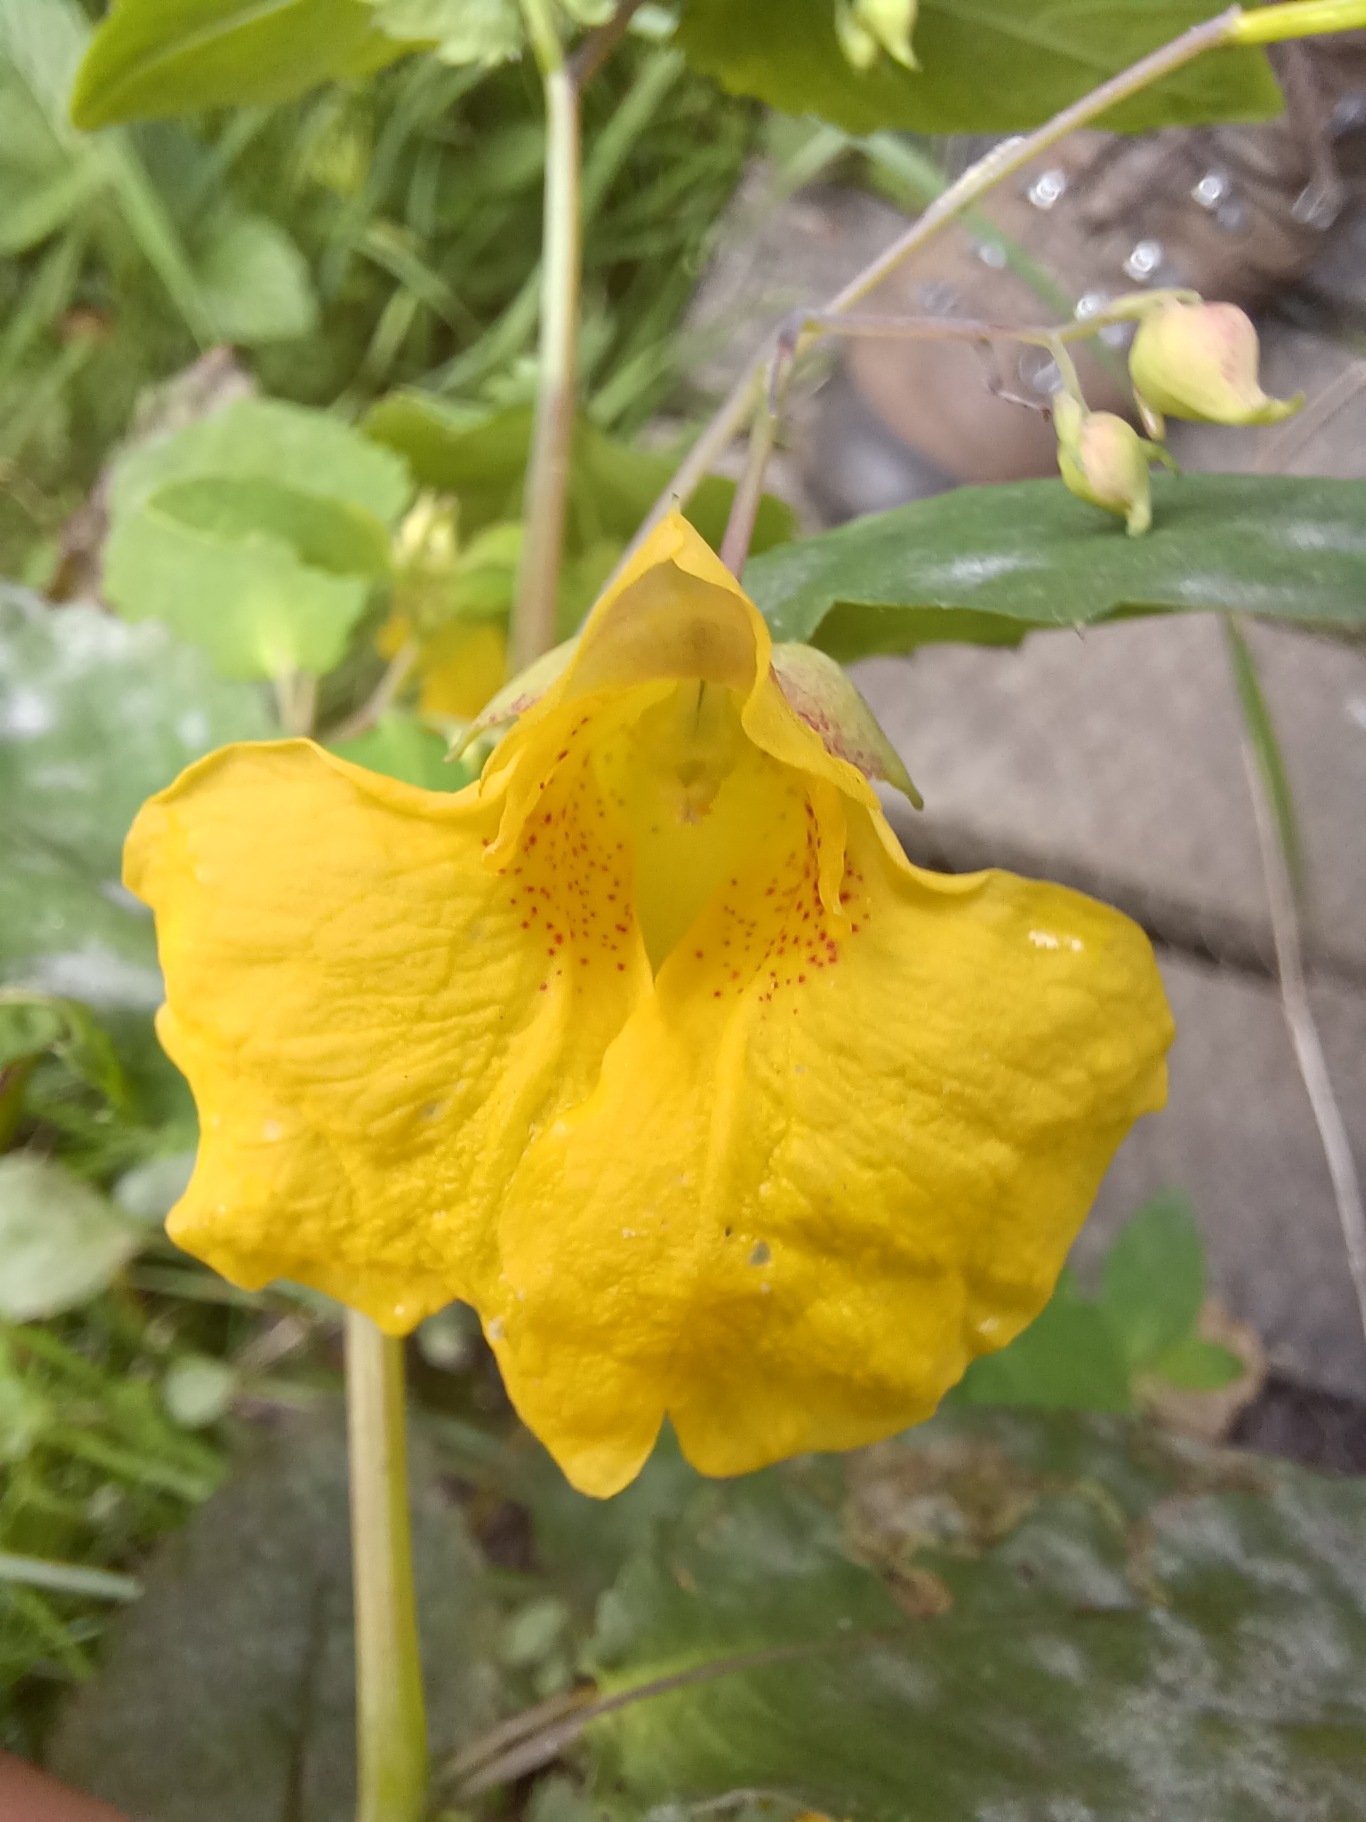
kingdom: Plantae
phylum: Tracheophyta
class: Magnoliopsida
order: Ericales
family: Balsaminaceae
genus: Impatiens
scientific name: Impatiens noli-tangere
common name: Spring-balsamin
